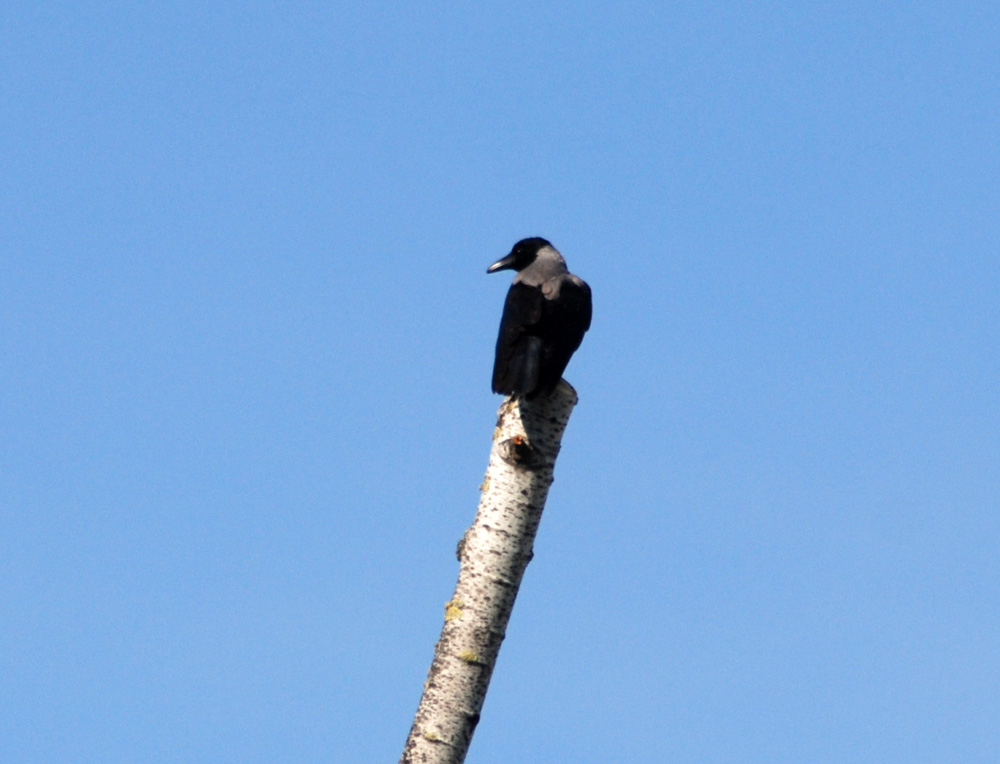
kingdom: Animalia
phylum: Chordata
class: Aves
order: Passeriformes
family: Corvidae
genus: Corvus
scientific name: Corvus cornix
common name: Hooded crow
